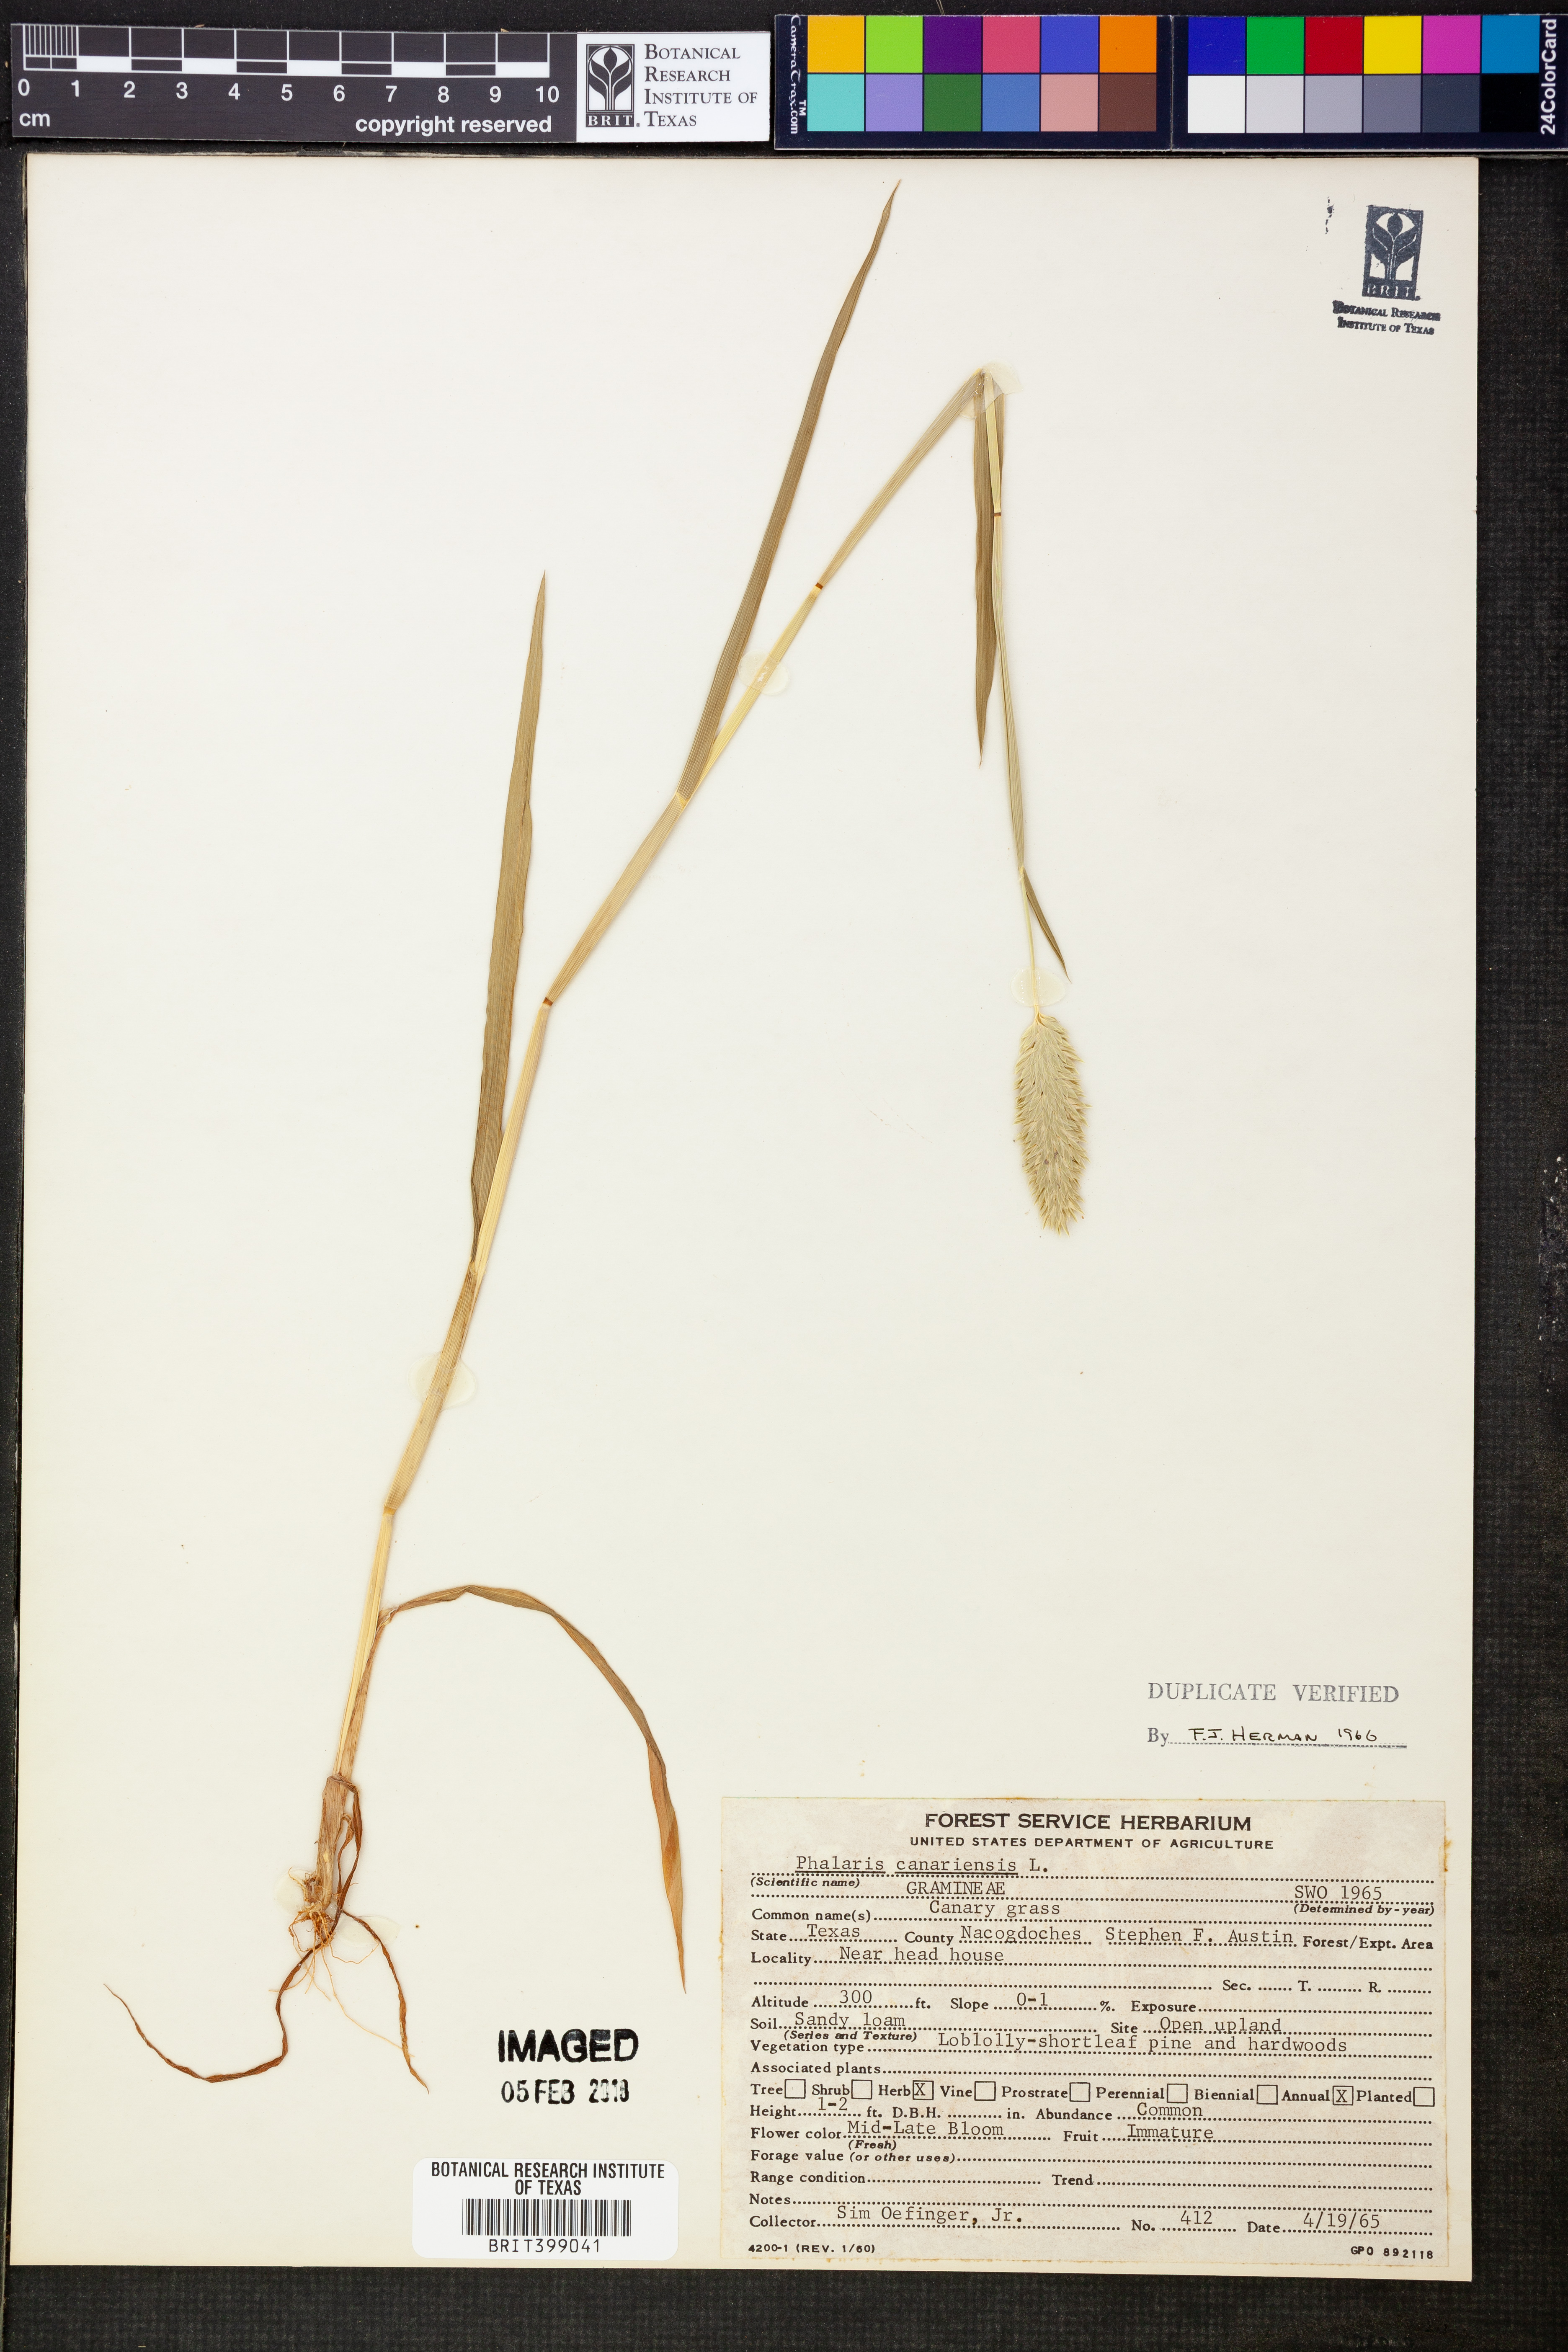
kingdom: Plantae
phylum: Tracheophyta
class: Liliopsida
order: Poales
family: Poaceae
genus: Phalaris
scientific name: Phalaris canariensis
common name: Annual canarygrass
